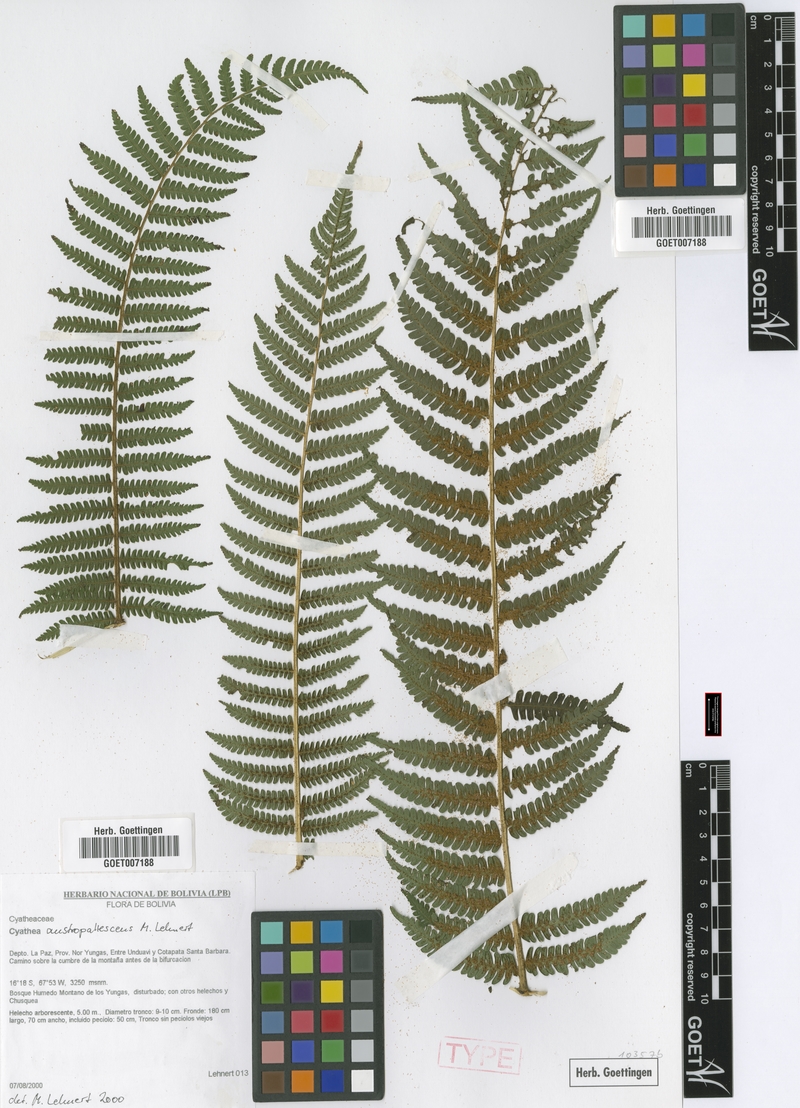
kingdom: Plantae
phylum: Tracheophyta
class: Polypodiopsida
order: Cyatheales
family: Cyatheaceae
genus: Cyathea
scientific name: Cyathea austropallescens
